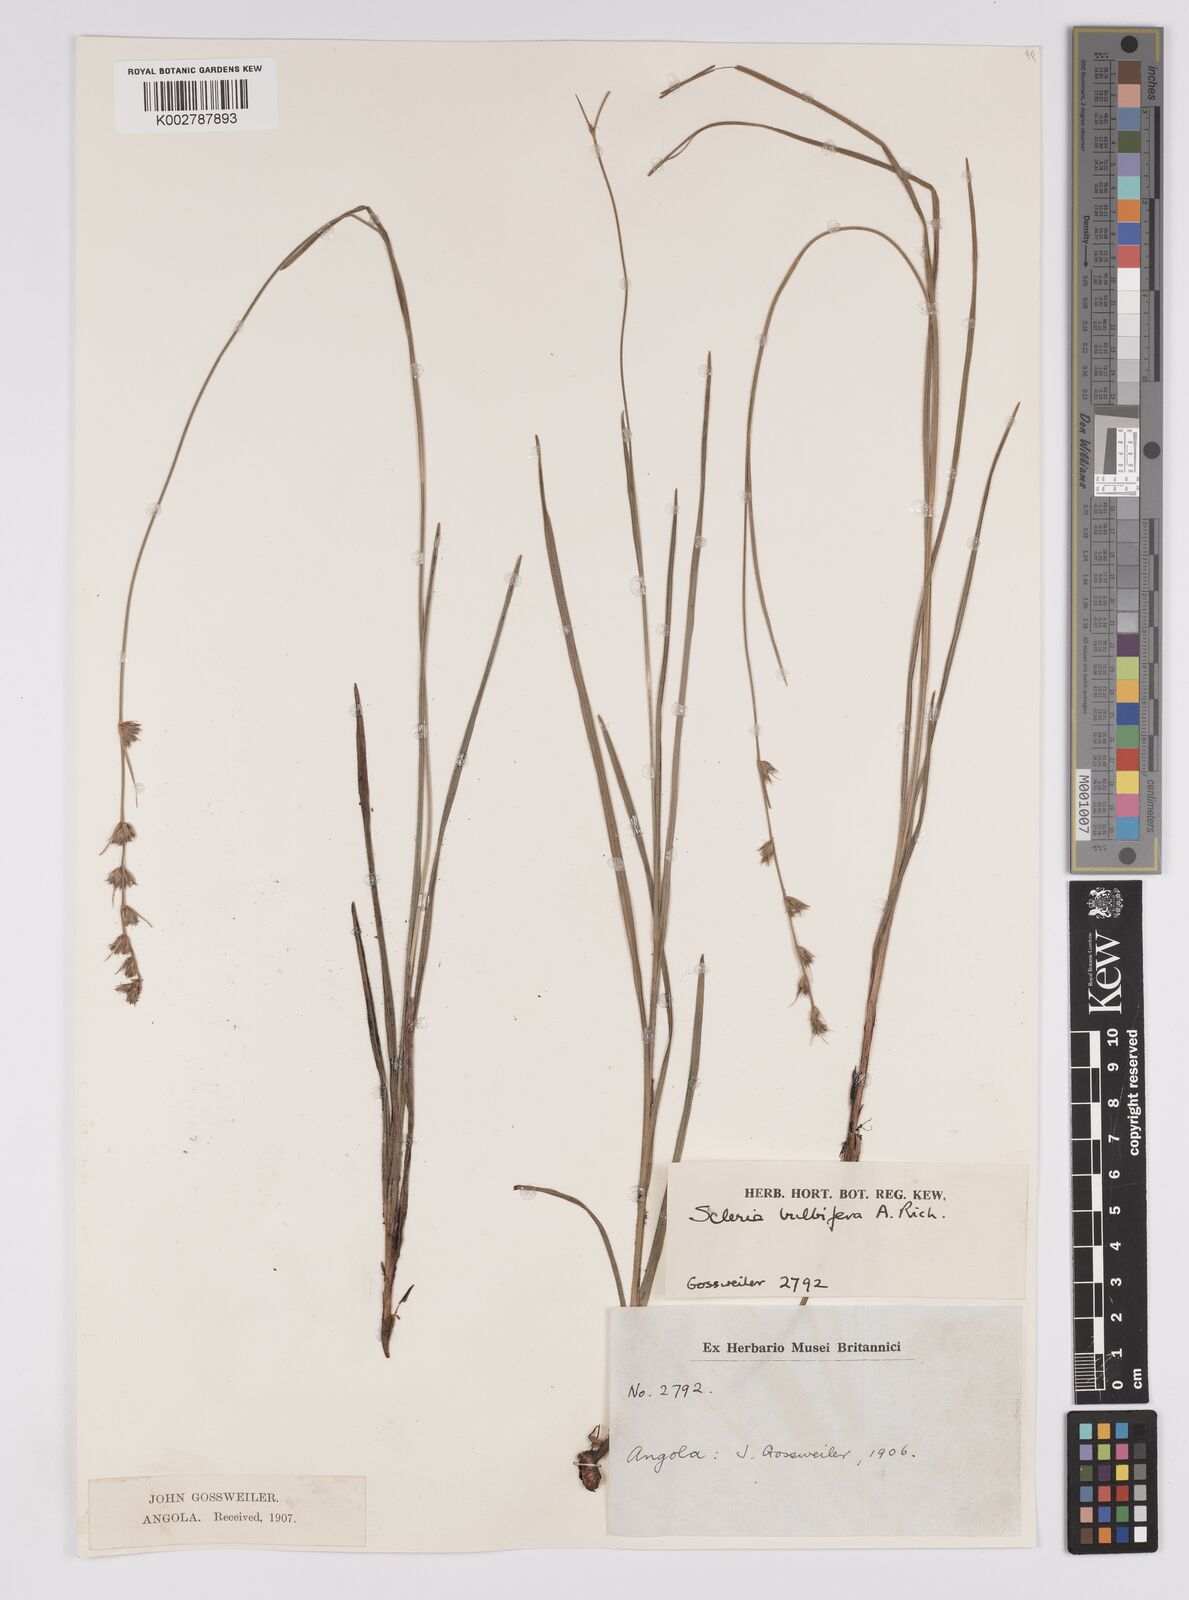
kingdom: Plantae
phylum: Tracheophyta
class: Liliopsida
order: Poales
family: Cyperaceae
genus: Scleria
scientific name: Scleria bulbifera
